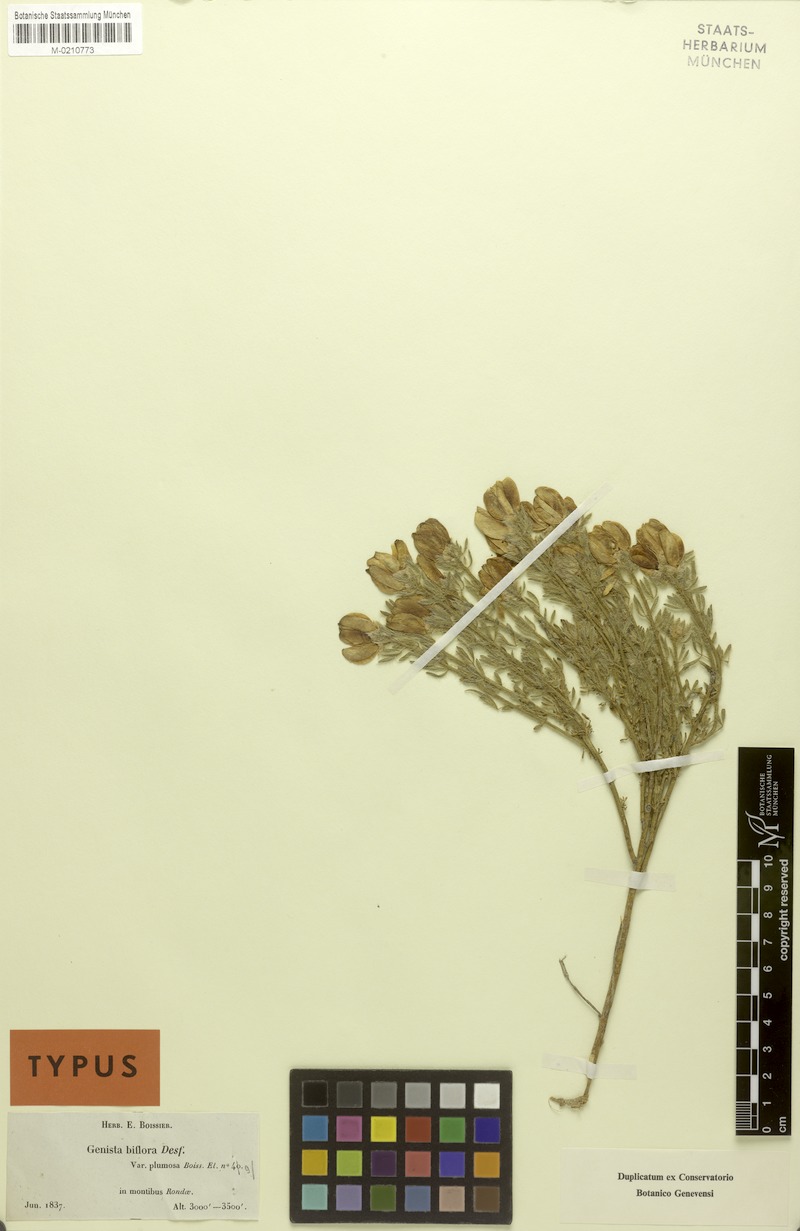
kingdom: Plantae
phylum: Tracheophyta
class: Magnoliopsida
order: Fabales
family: Fabaceae
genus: Cytisus
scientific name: Cytisus fontanesii
